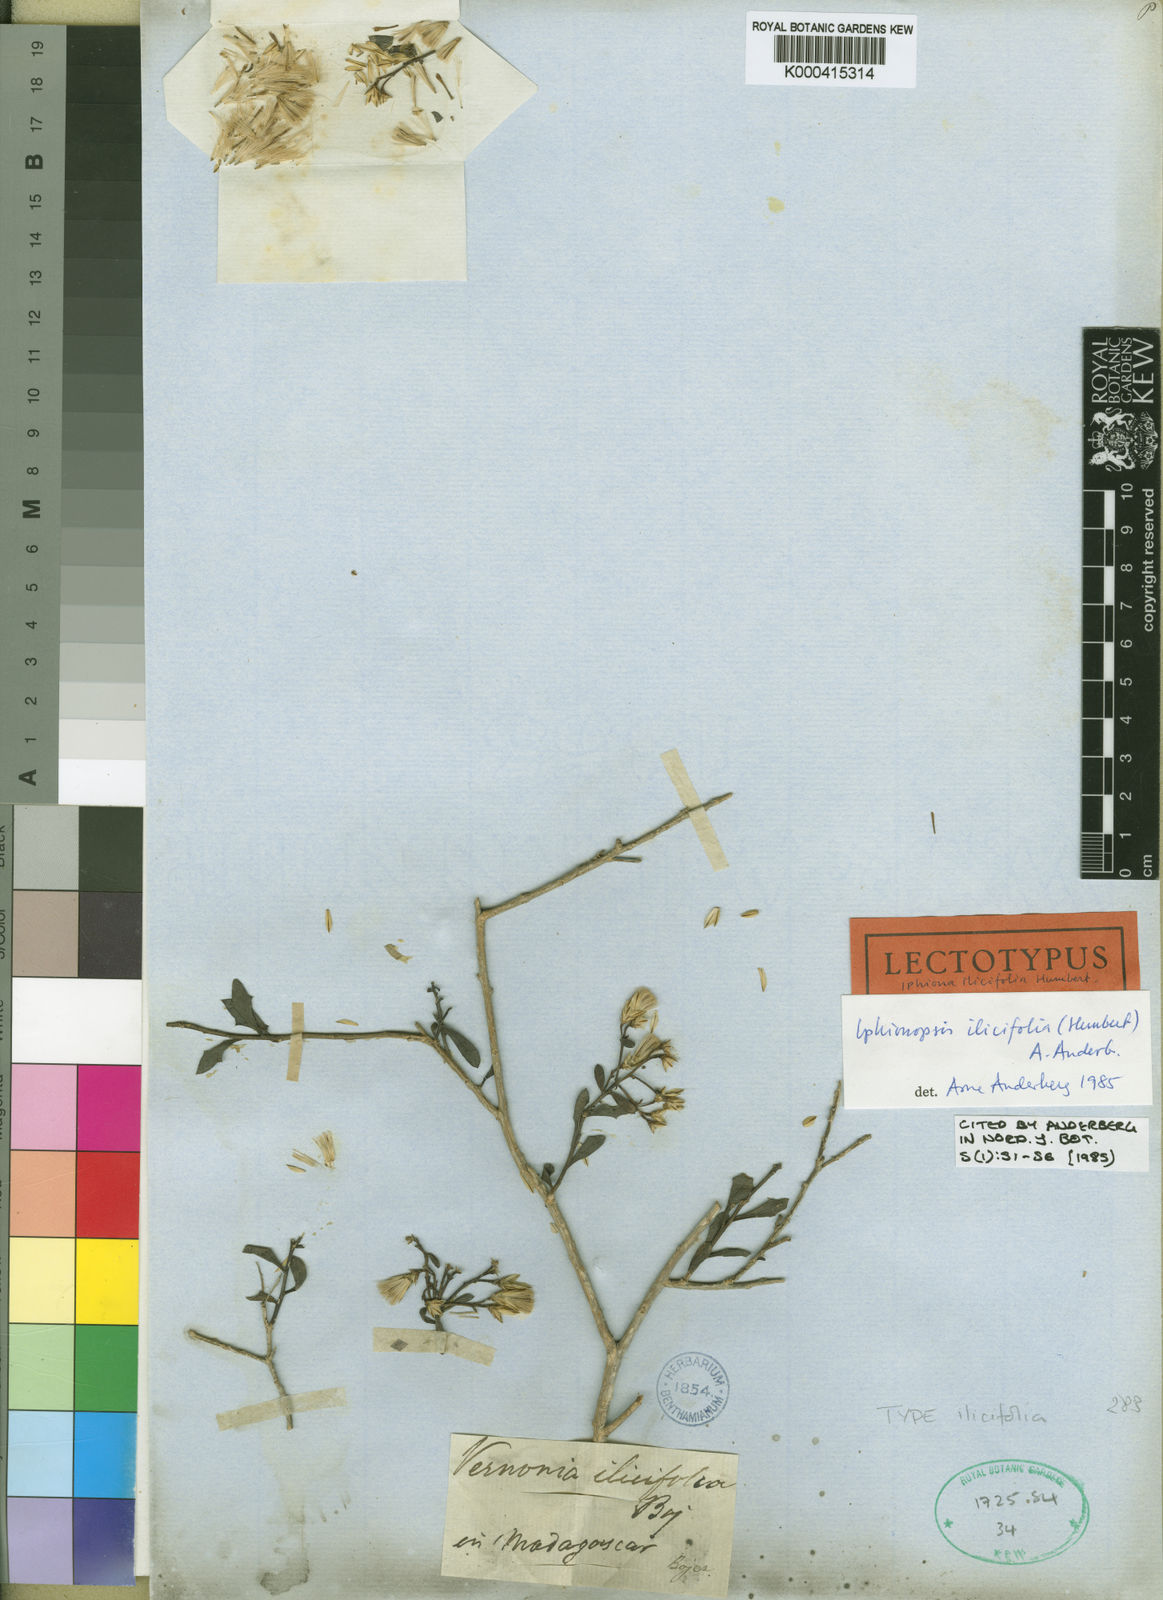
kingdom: Plantae
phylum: Tracheophyta
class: Magnoliopsida
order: Asterales
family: Asteraceae
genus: Iphionopsis
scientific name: Iphionopsis ilicifolia
